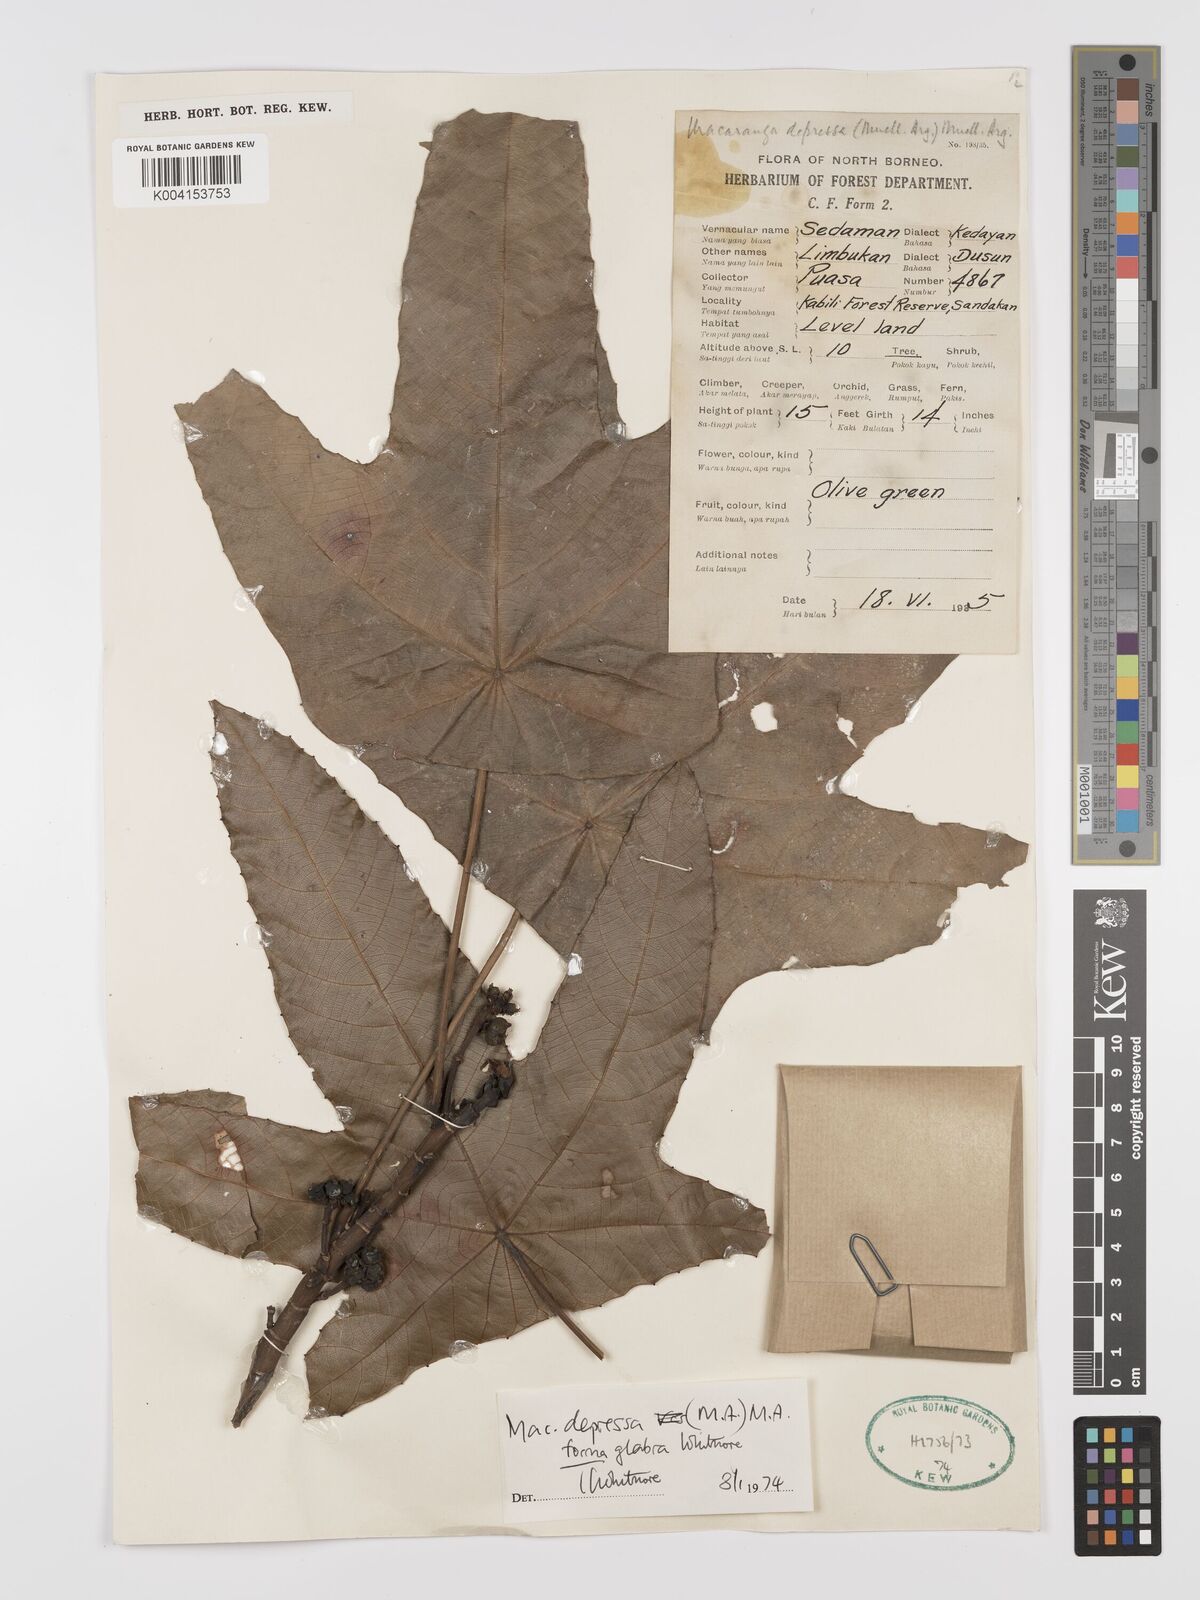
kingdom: Plantae
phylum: Tracheophyta
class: Magnoliopsida
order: Malpighiales
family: Euphorbiaceae
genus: Macaranga
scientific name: Macaranga depressa
